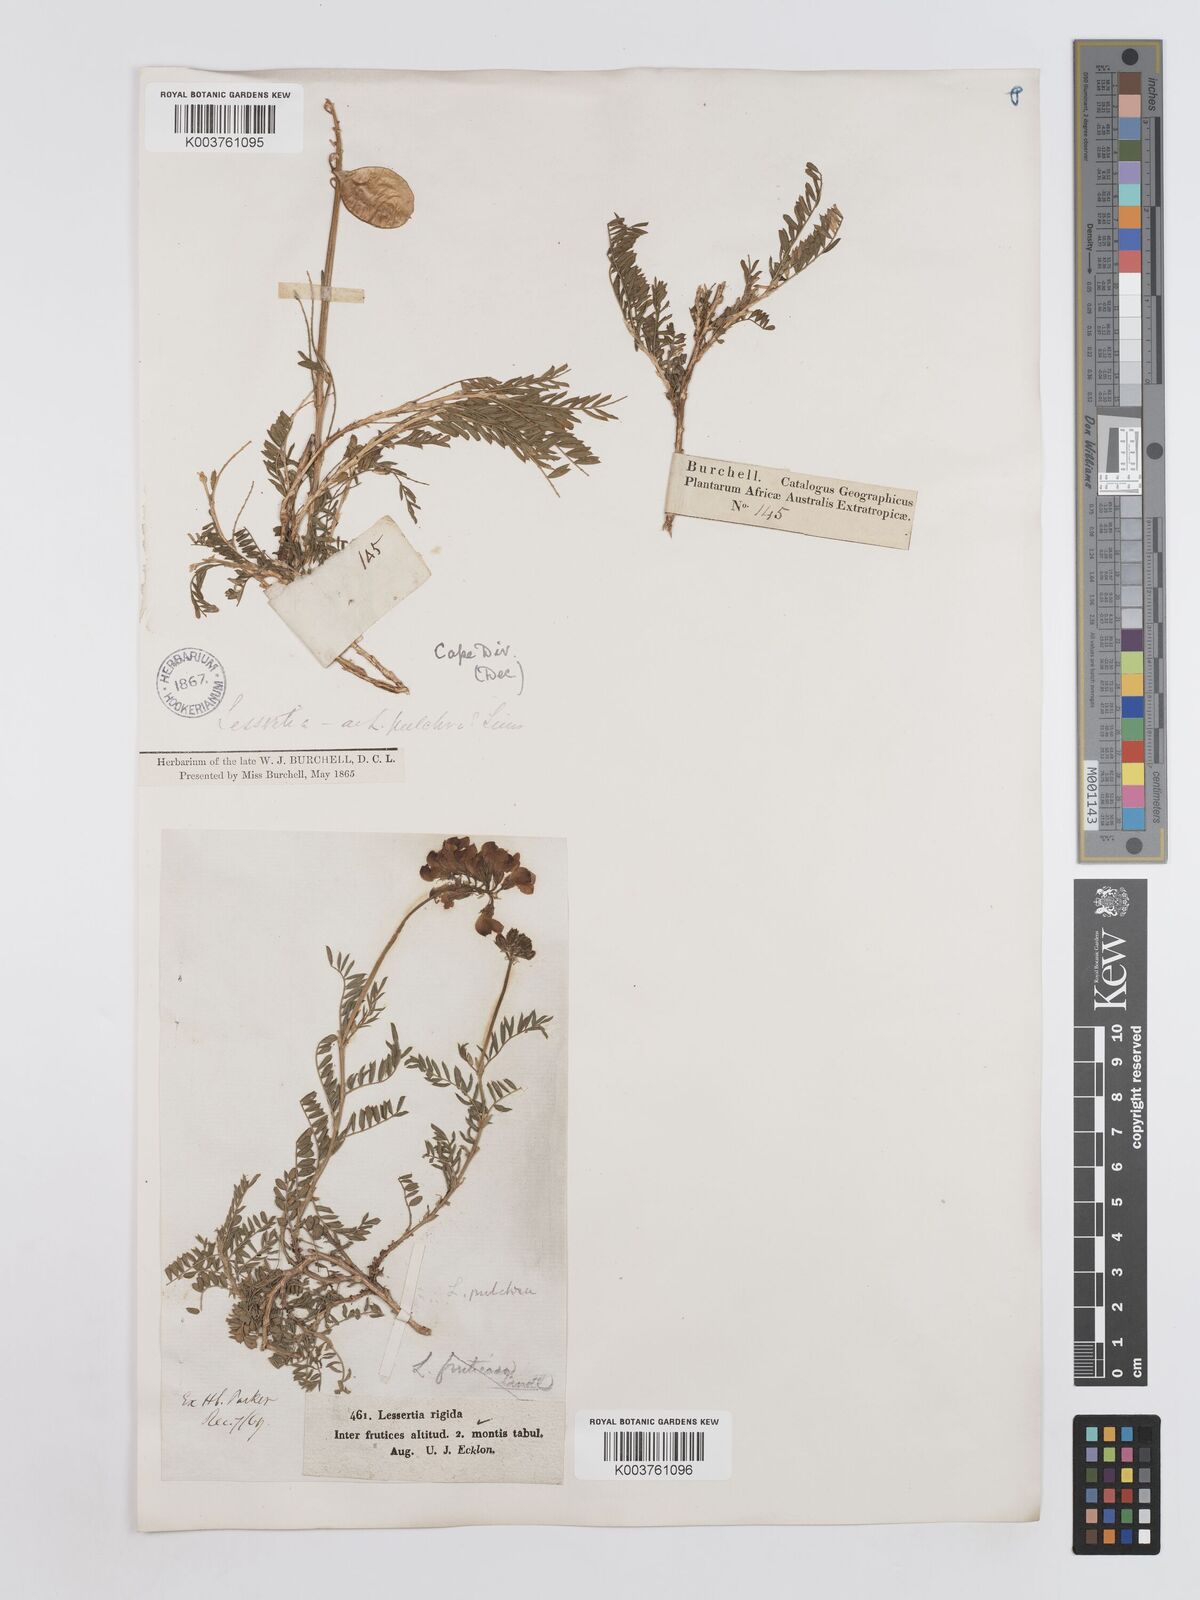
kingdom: Plantae
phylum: Tracheophyta
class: Magnoliopsida
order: Fabales
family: Fabaceae
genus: Lessertia
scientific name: Lessertia capensis
